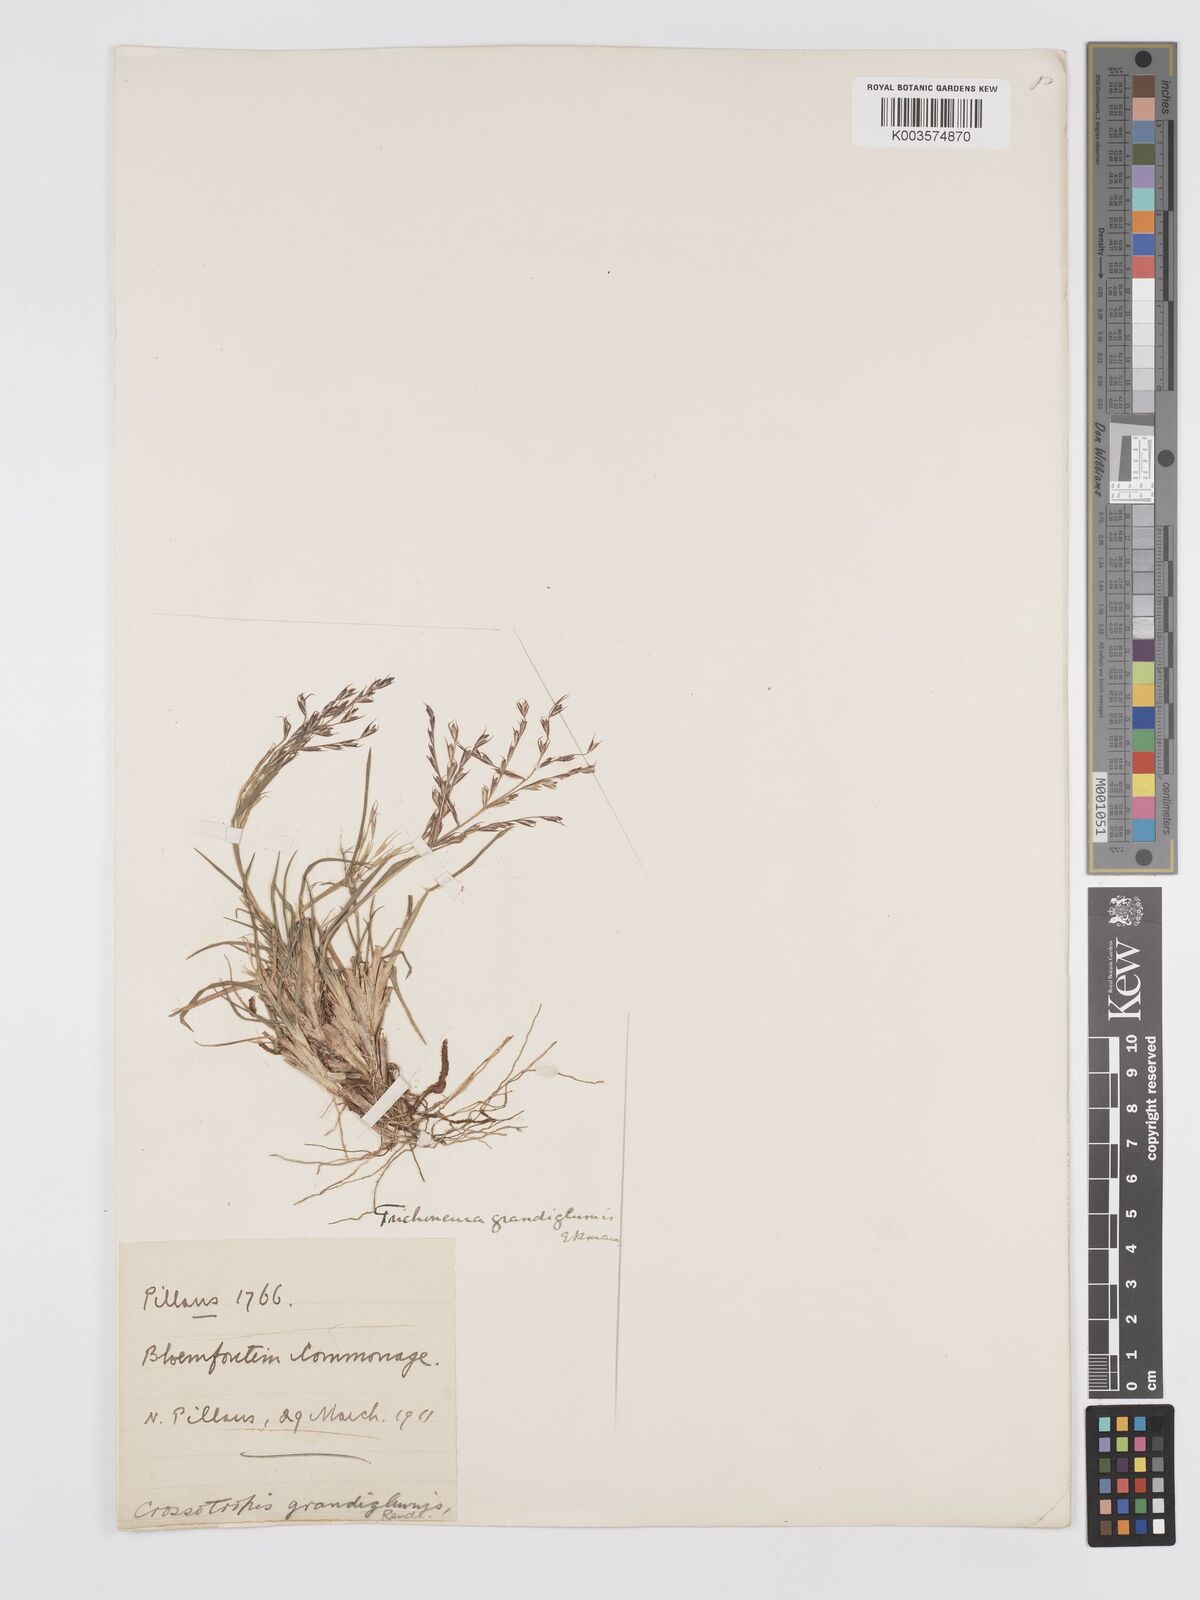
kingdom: Plantae
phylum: Tracheophyta
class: Liliopsida
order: Poales
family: Poaceae
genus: Trichoneura
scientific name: Trichoneura grandiglumis
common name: Rolling grass
